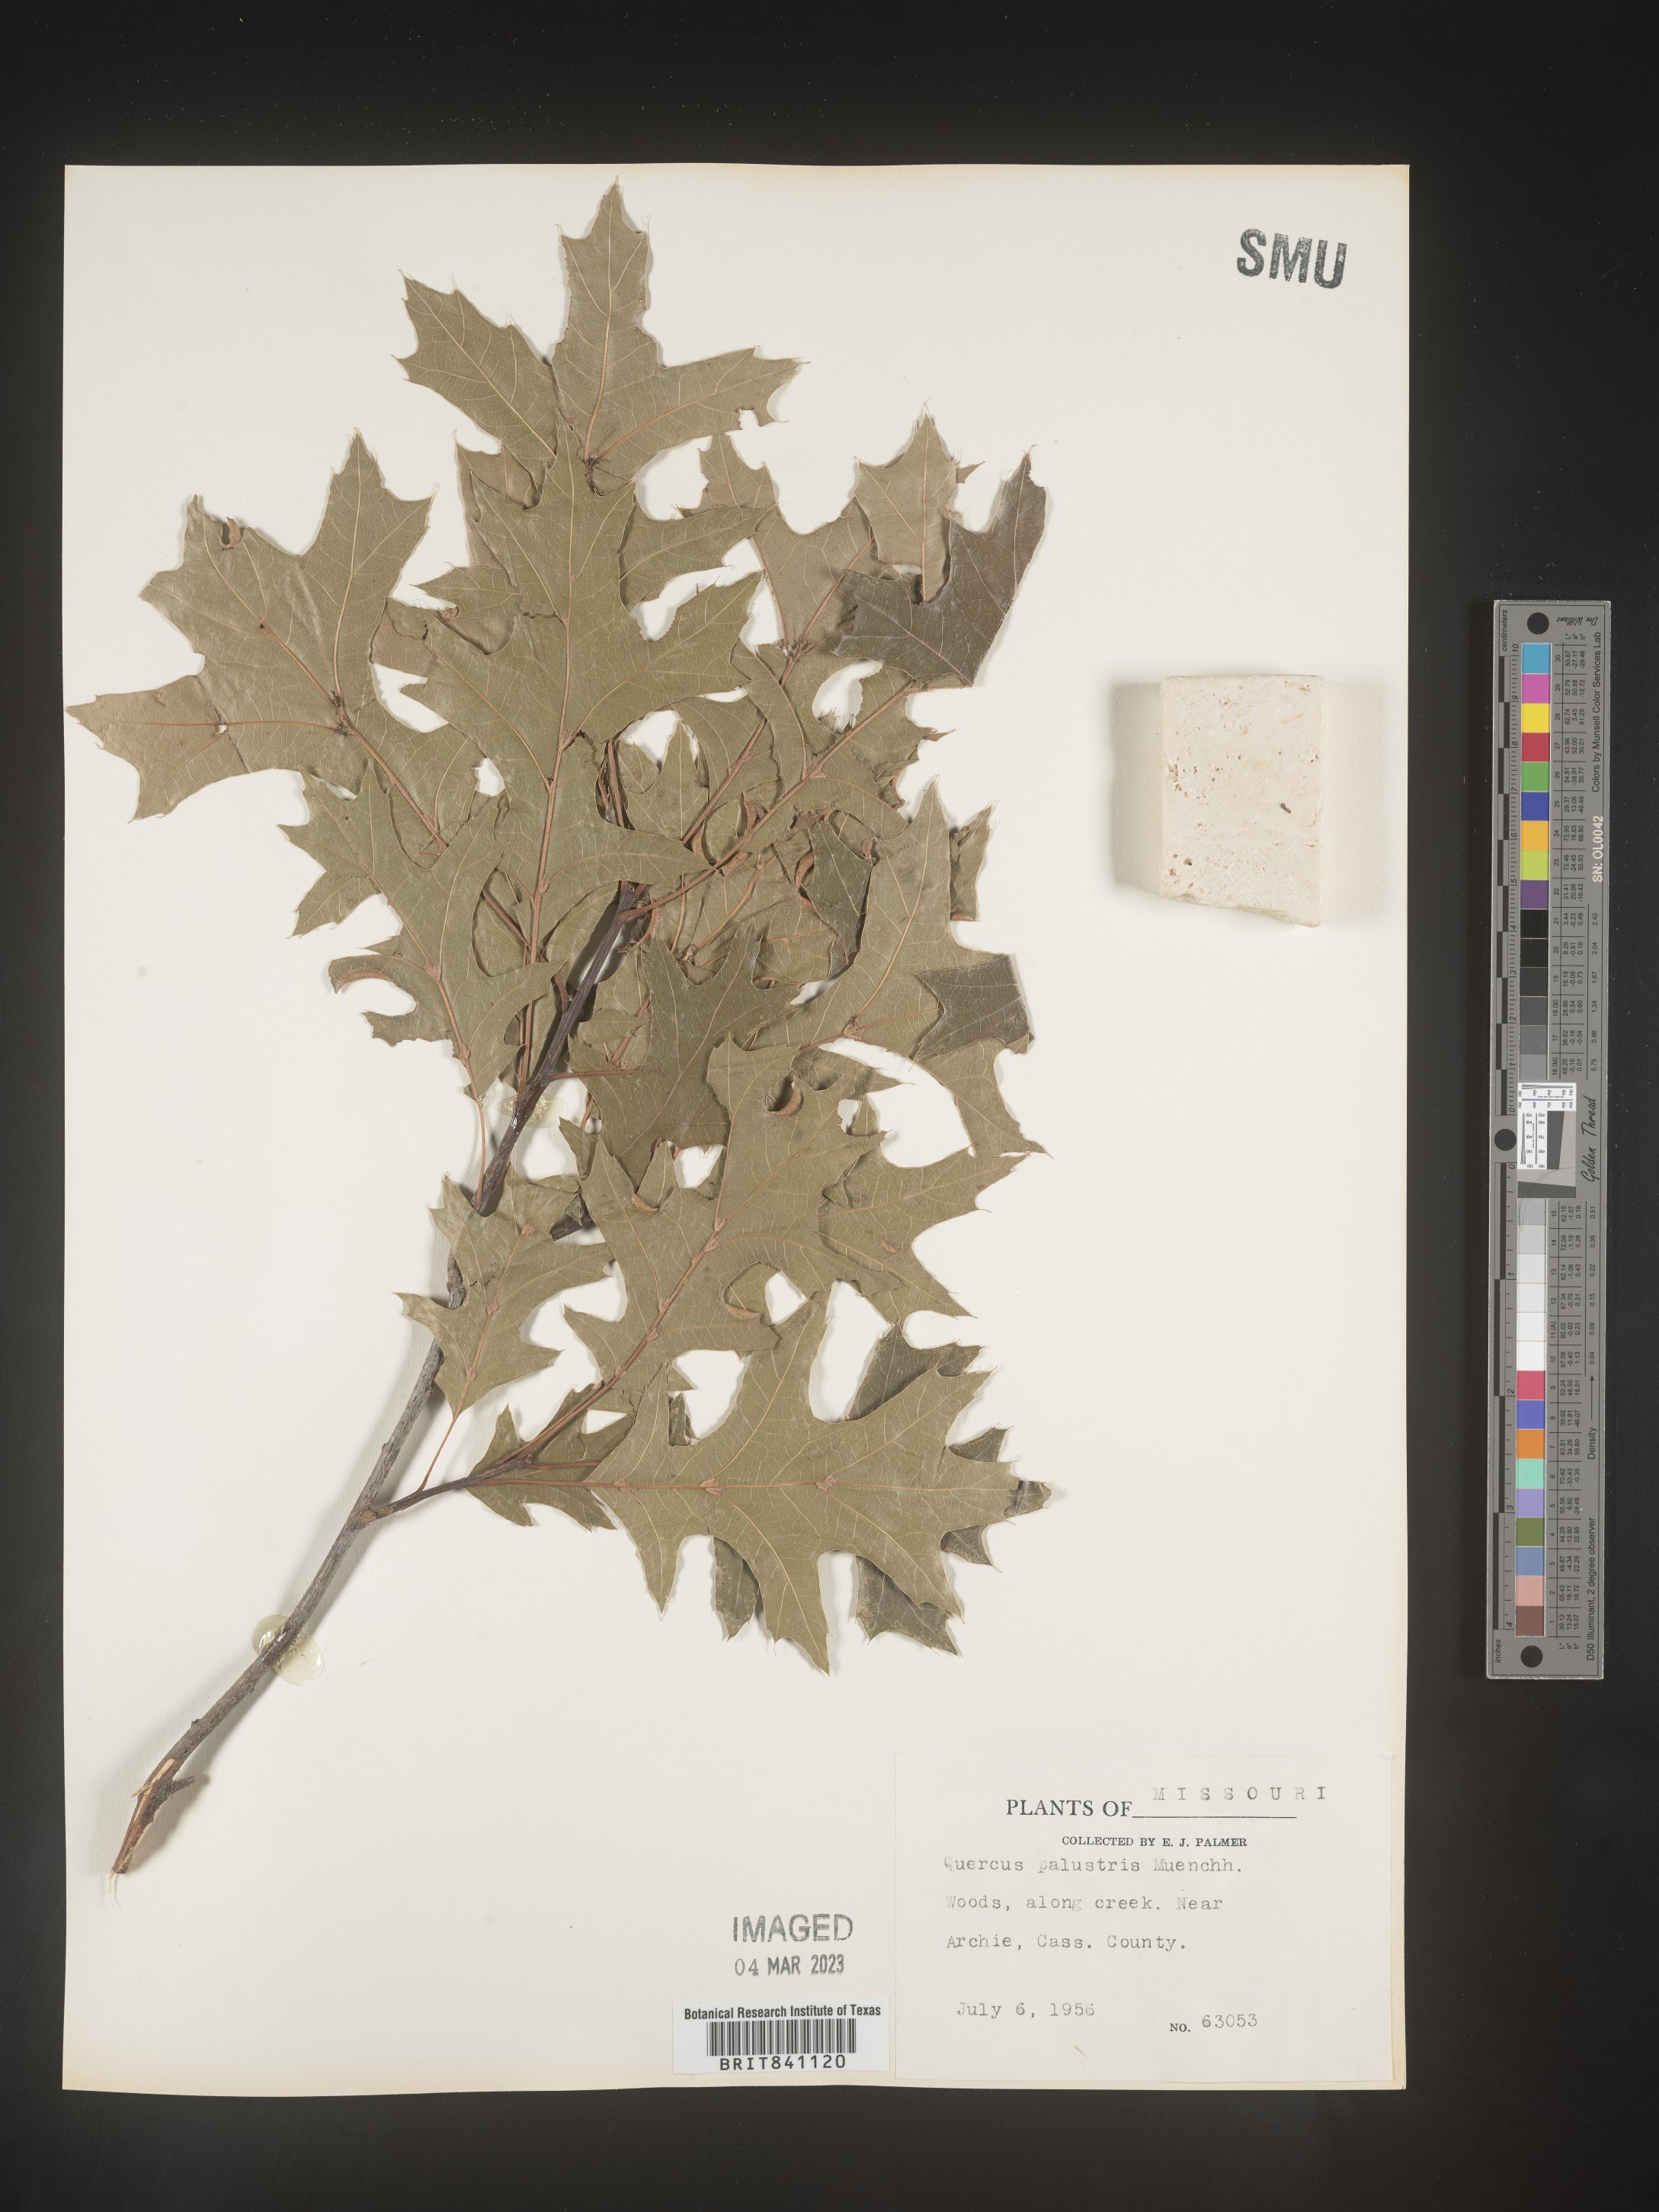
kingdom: Plantae
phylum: Tracheophyta
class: Magnoliopsida
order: Fagales
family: Fagaceae
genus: Quercus
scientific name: Quercus palustris
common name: Pin oak
